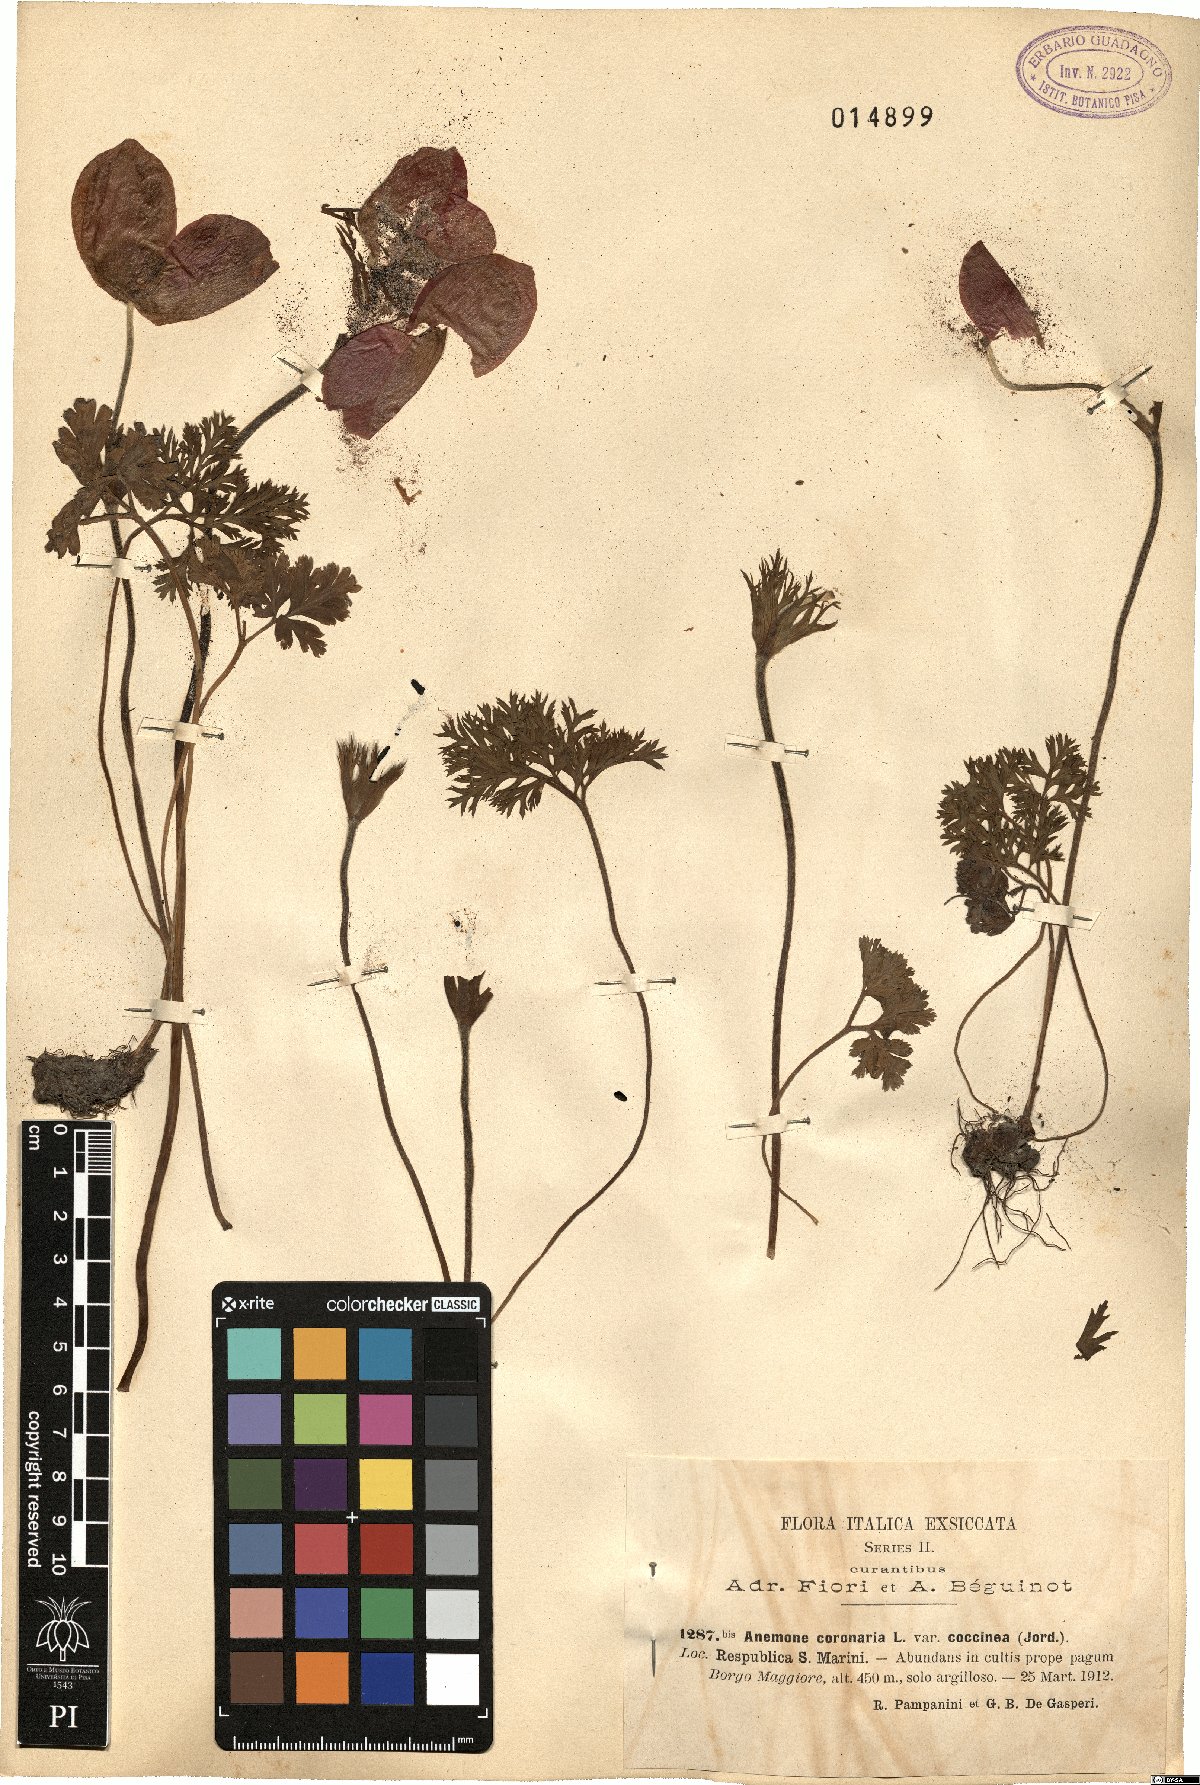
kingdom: Plantae
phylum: Tracheophyta
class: Magnoliopsida
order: Ranunculales
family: Ranunculaceae
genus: Anemone
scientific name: Anemone coronaria
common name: Poppy anemone
